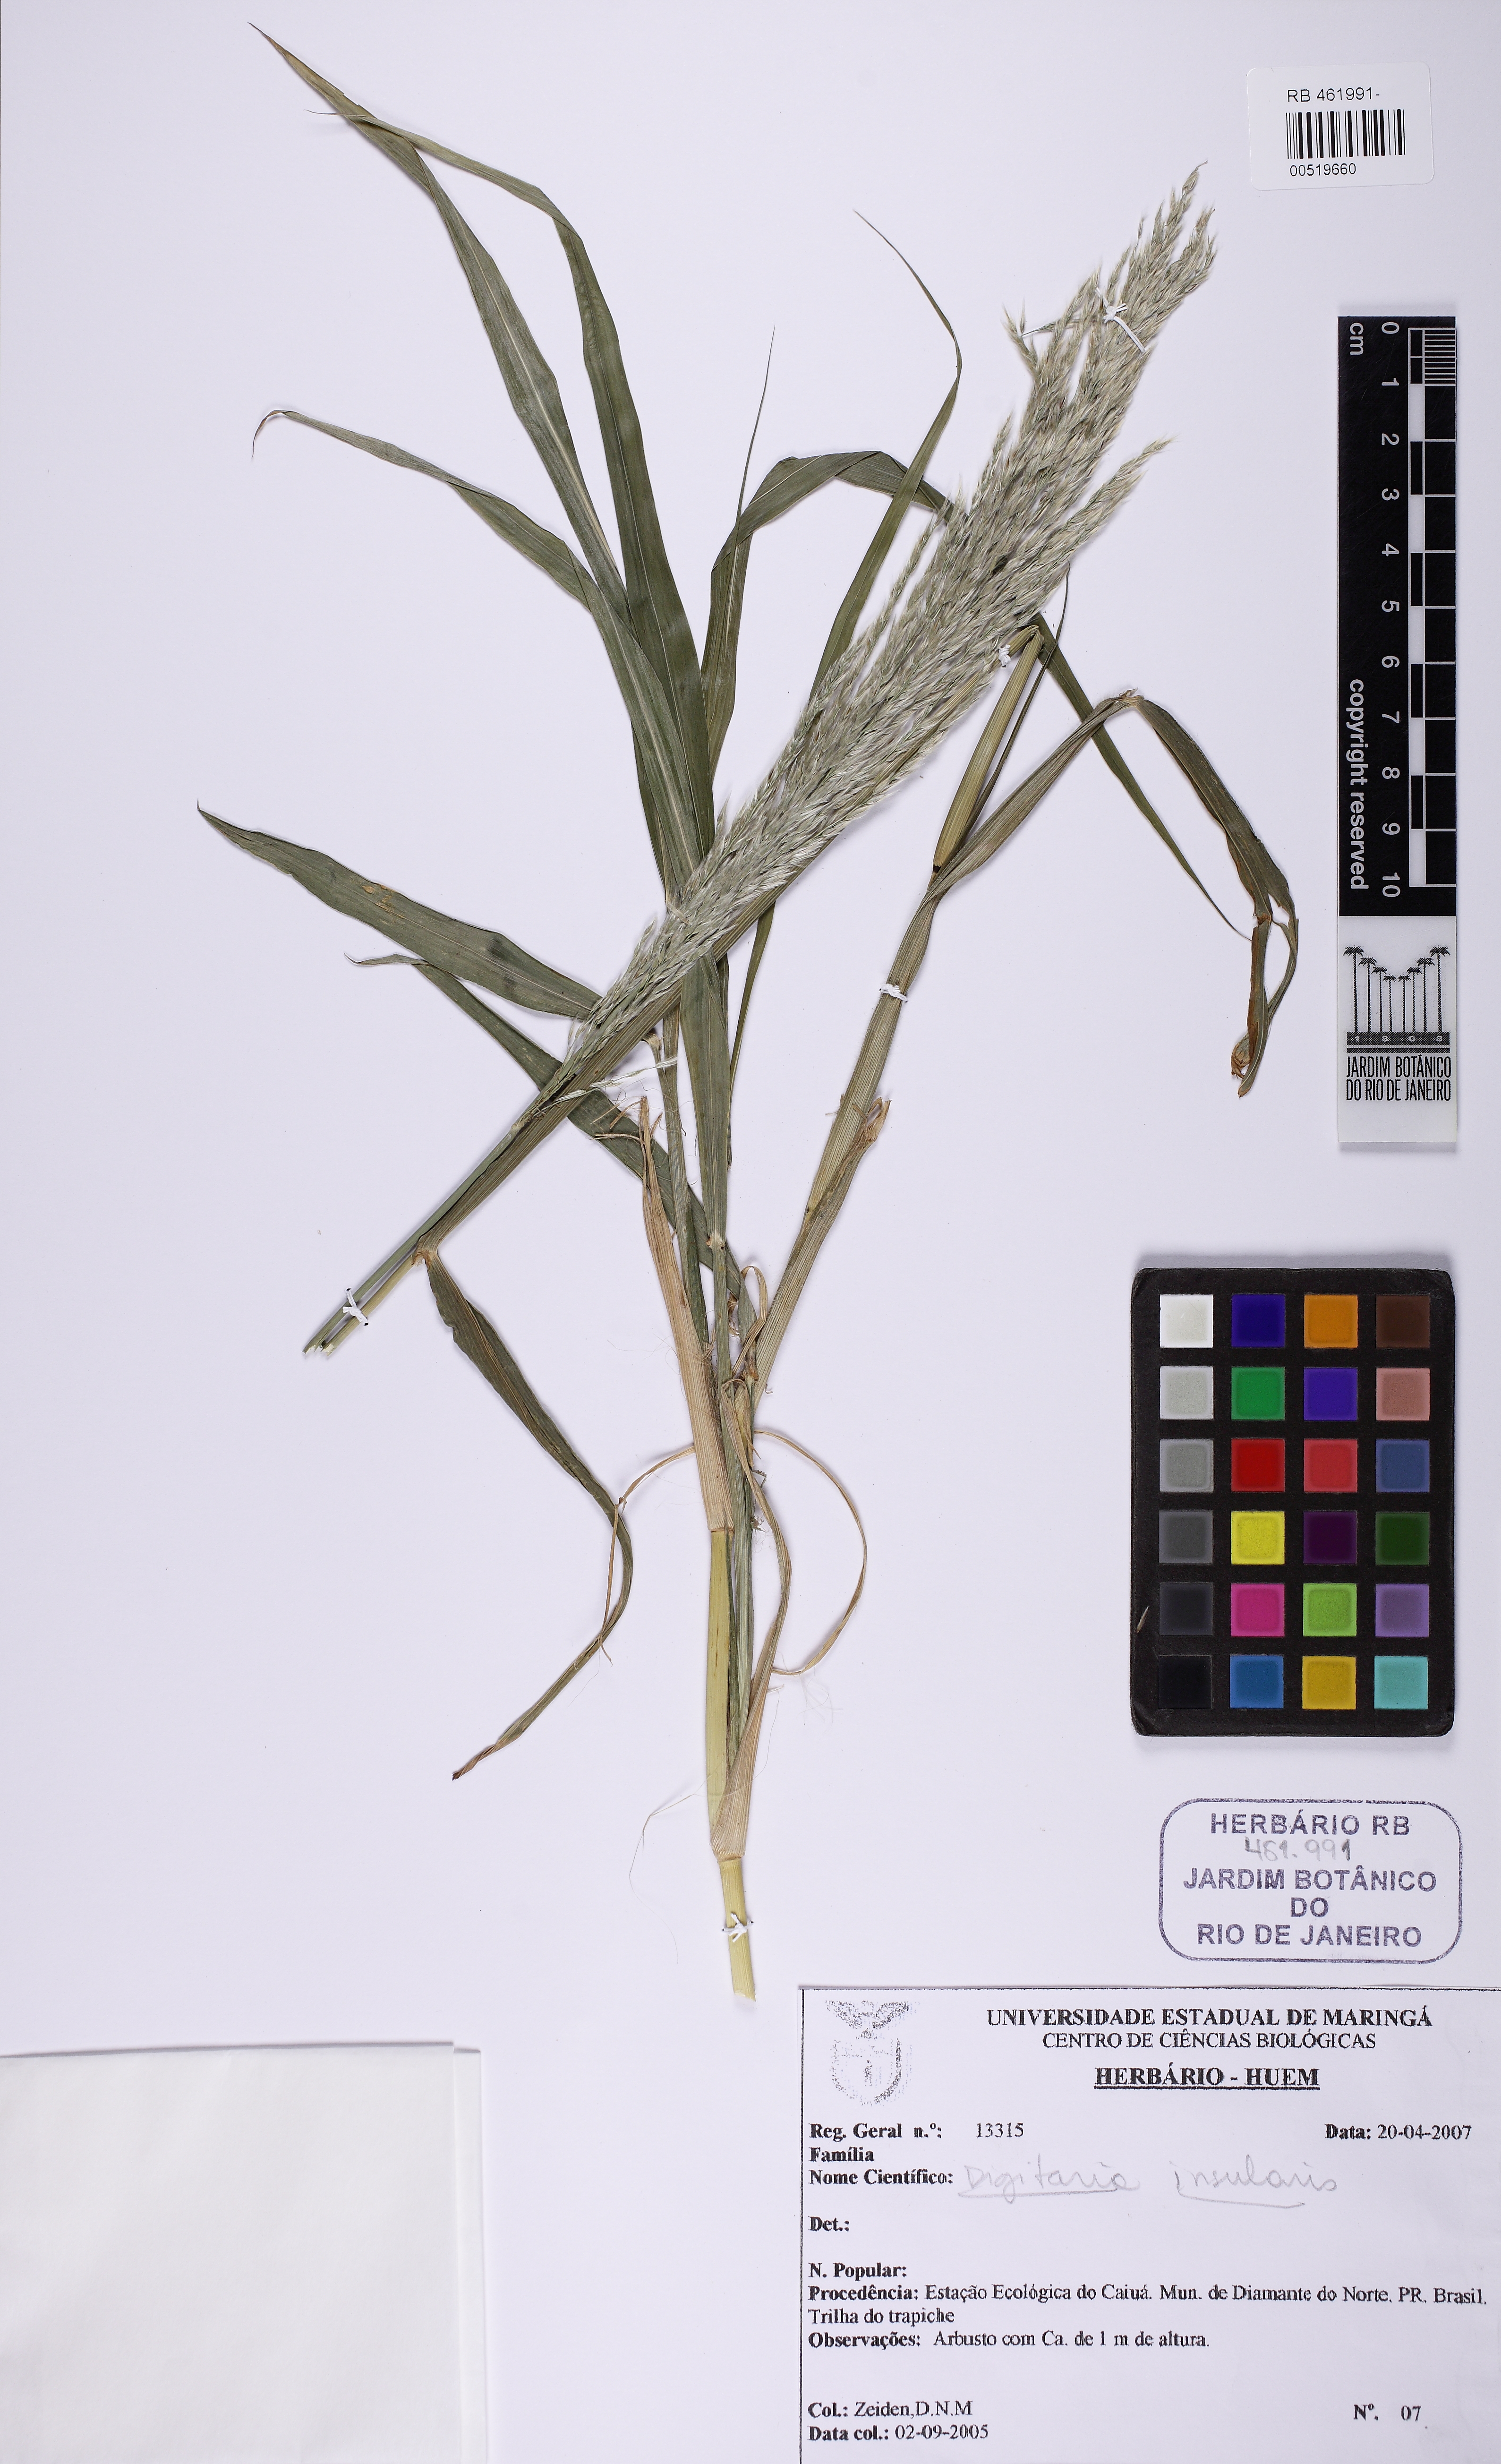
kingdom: Plantae
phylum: Tracheophyta
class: Liliopsida
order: Poales
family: Poaceae
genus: Digitaria
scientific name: Digitaria insularis
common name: Sourgrass
